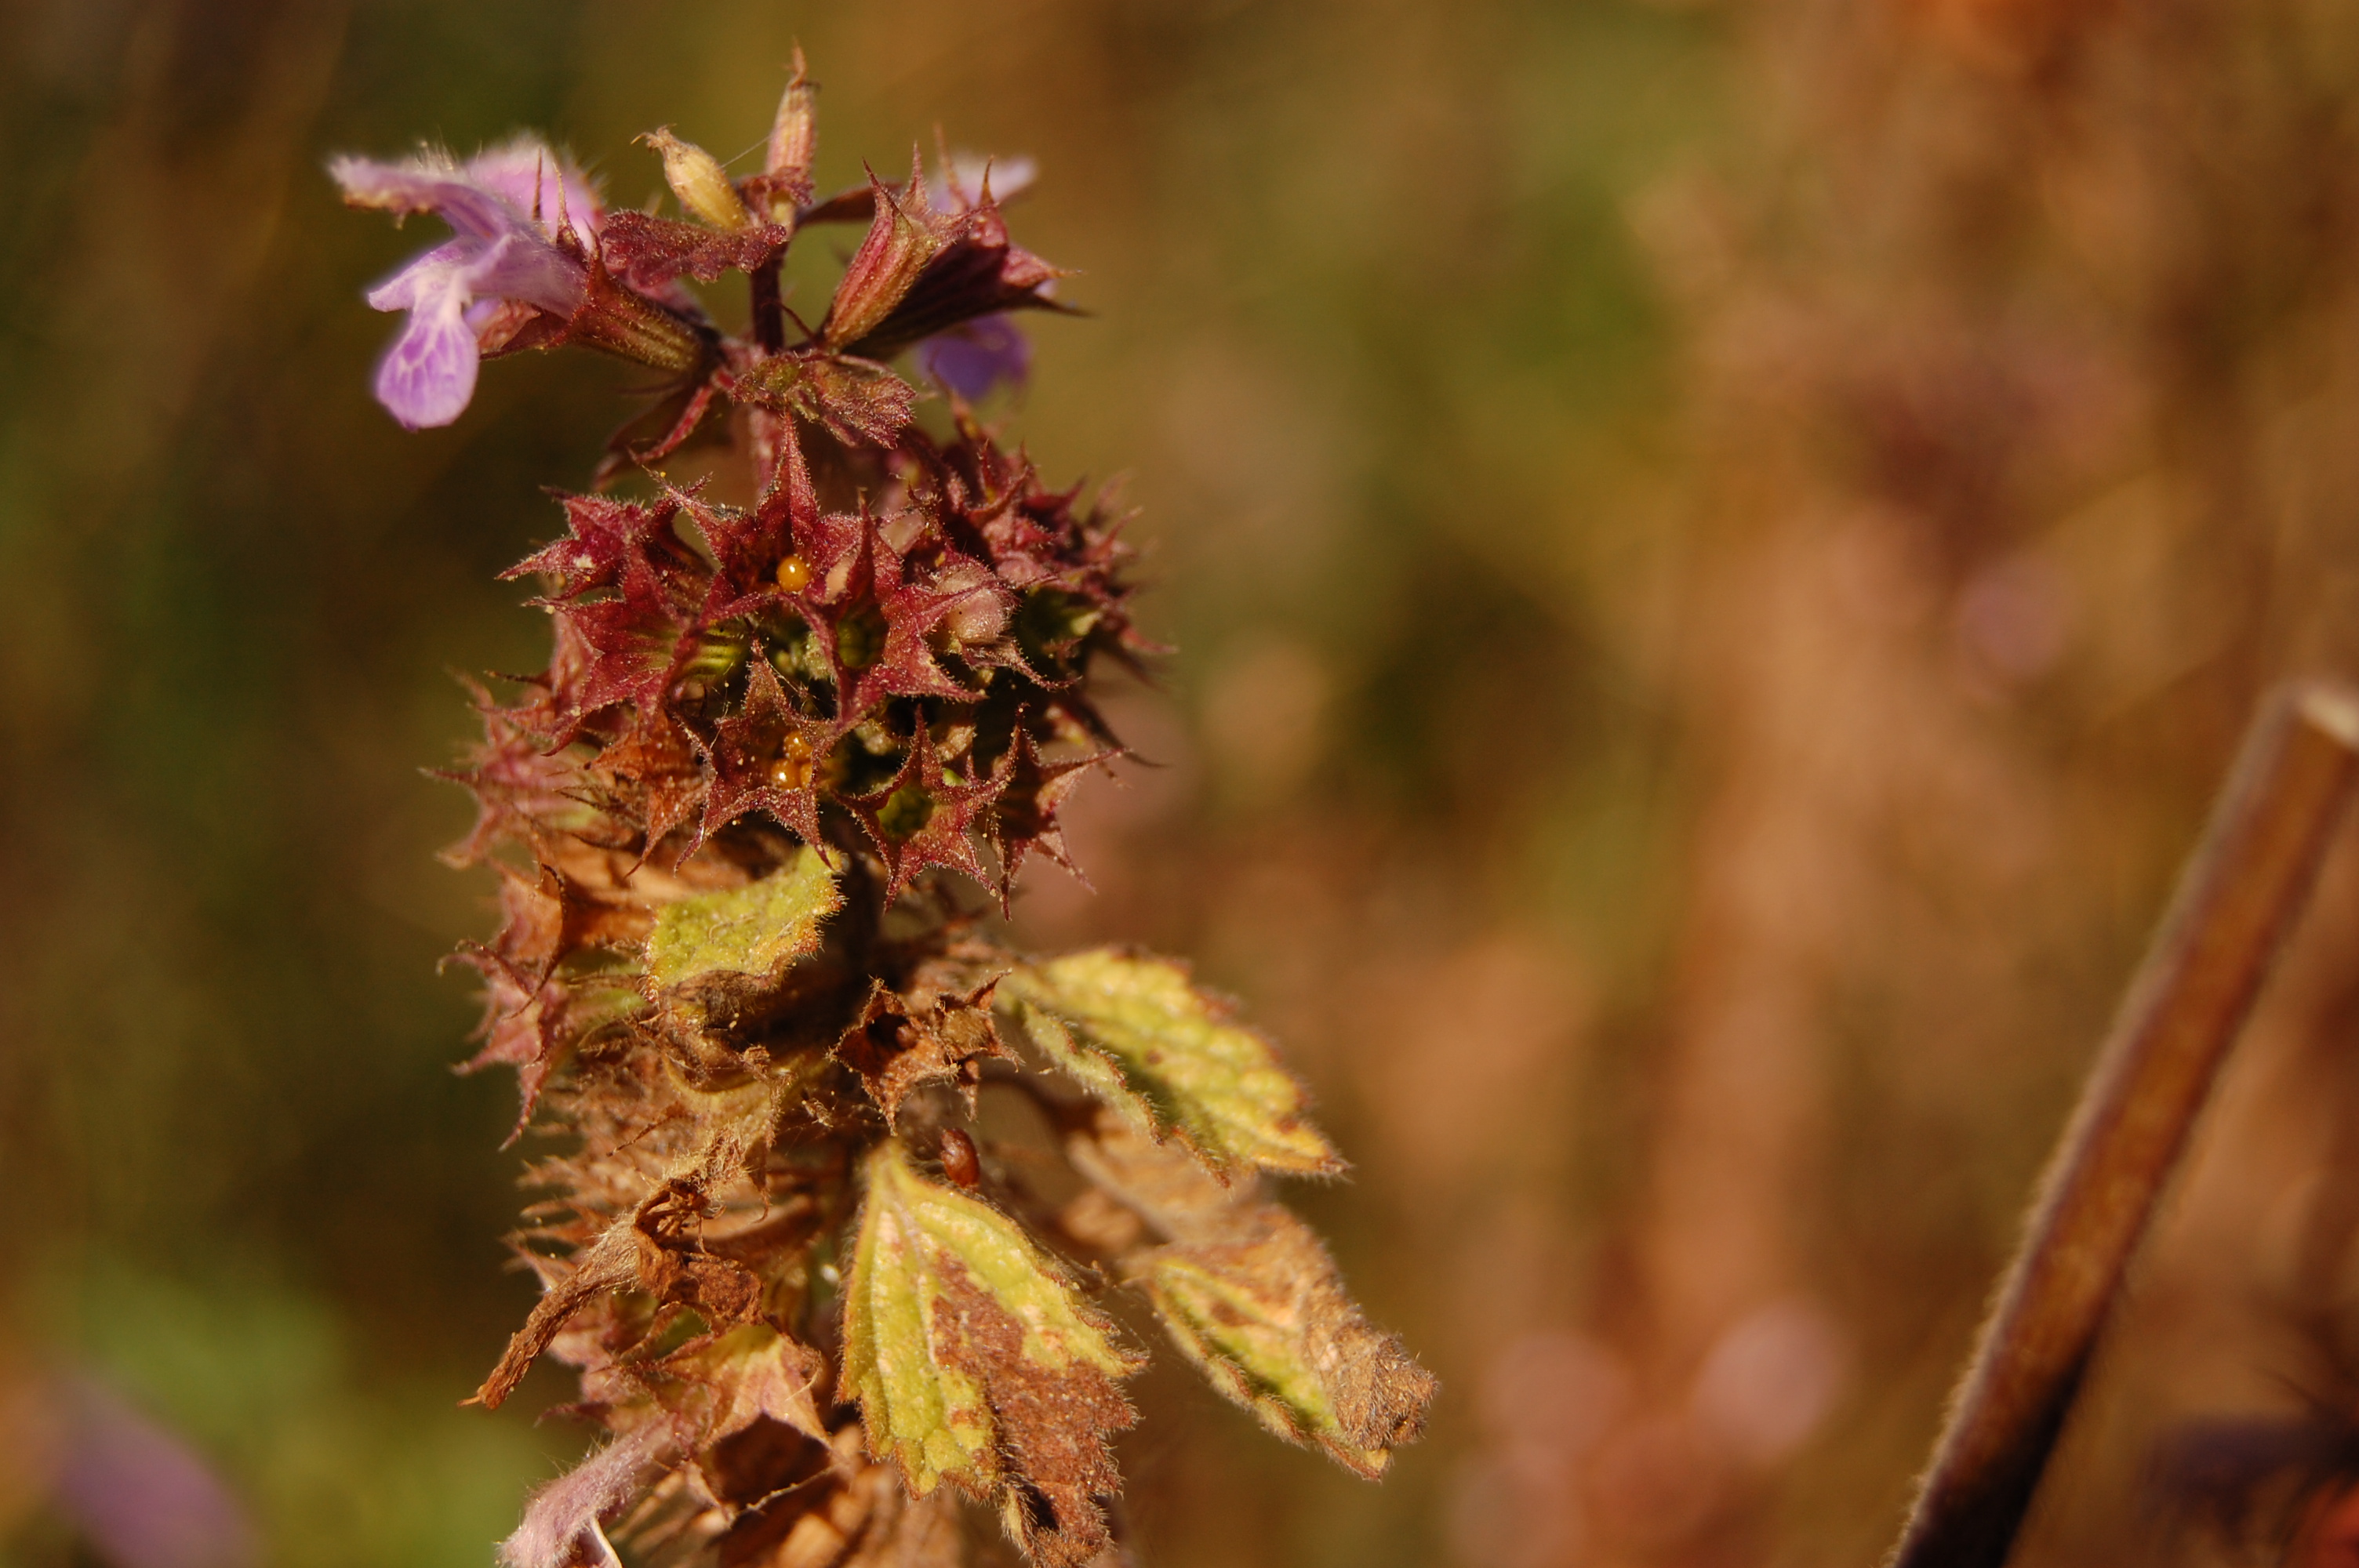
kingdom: Plantae
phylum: Tracheophyta
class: Magnoliopsida
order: Lamiales
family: Lamiaceae
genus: Ballota
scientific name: Ballota nigra
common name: Black horehound
